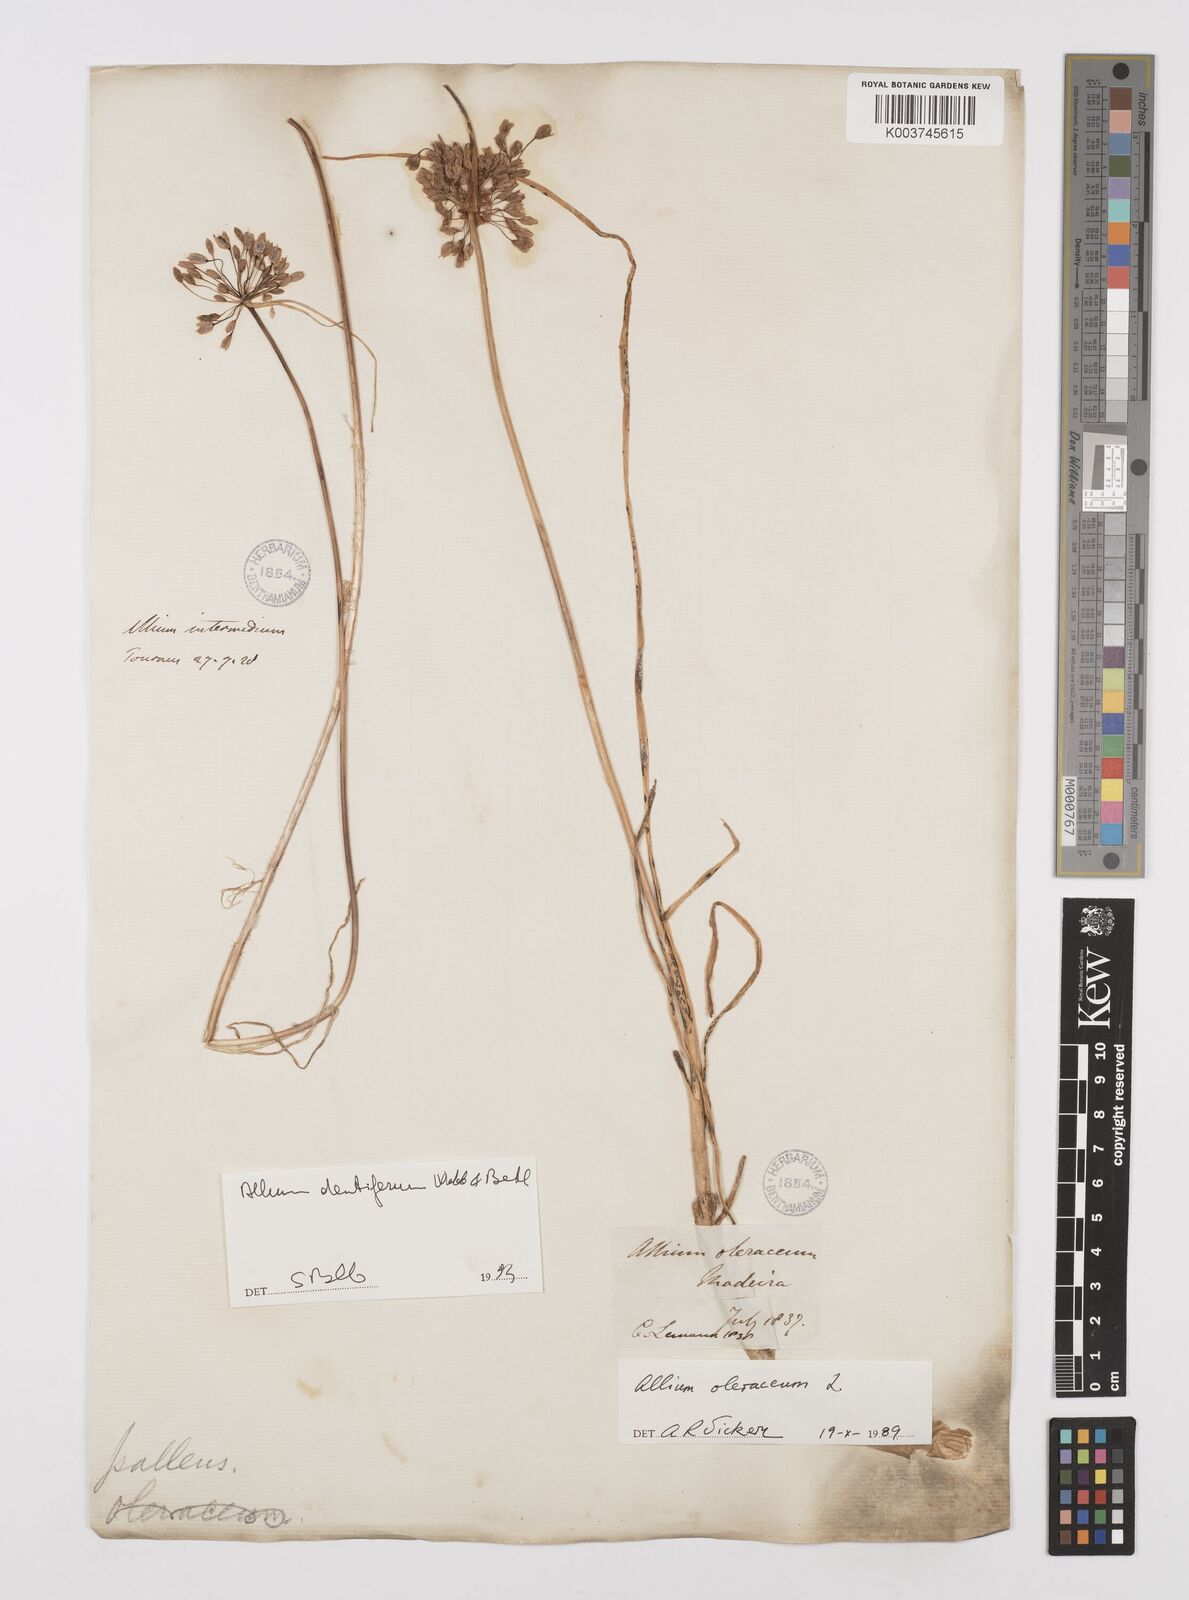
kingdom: Plantae
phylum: Tracheophyta
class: Liliopsida
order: Asparagales
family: Amaryllidaceae
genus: Allium
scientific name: Allium flavum
